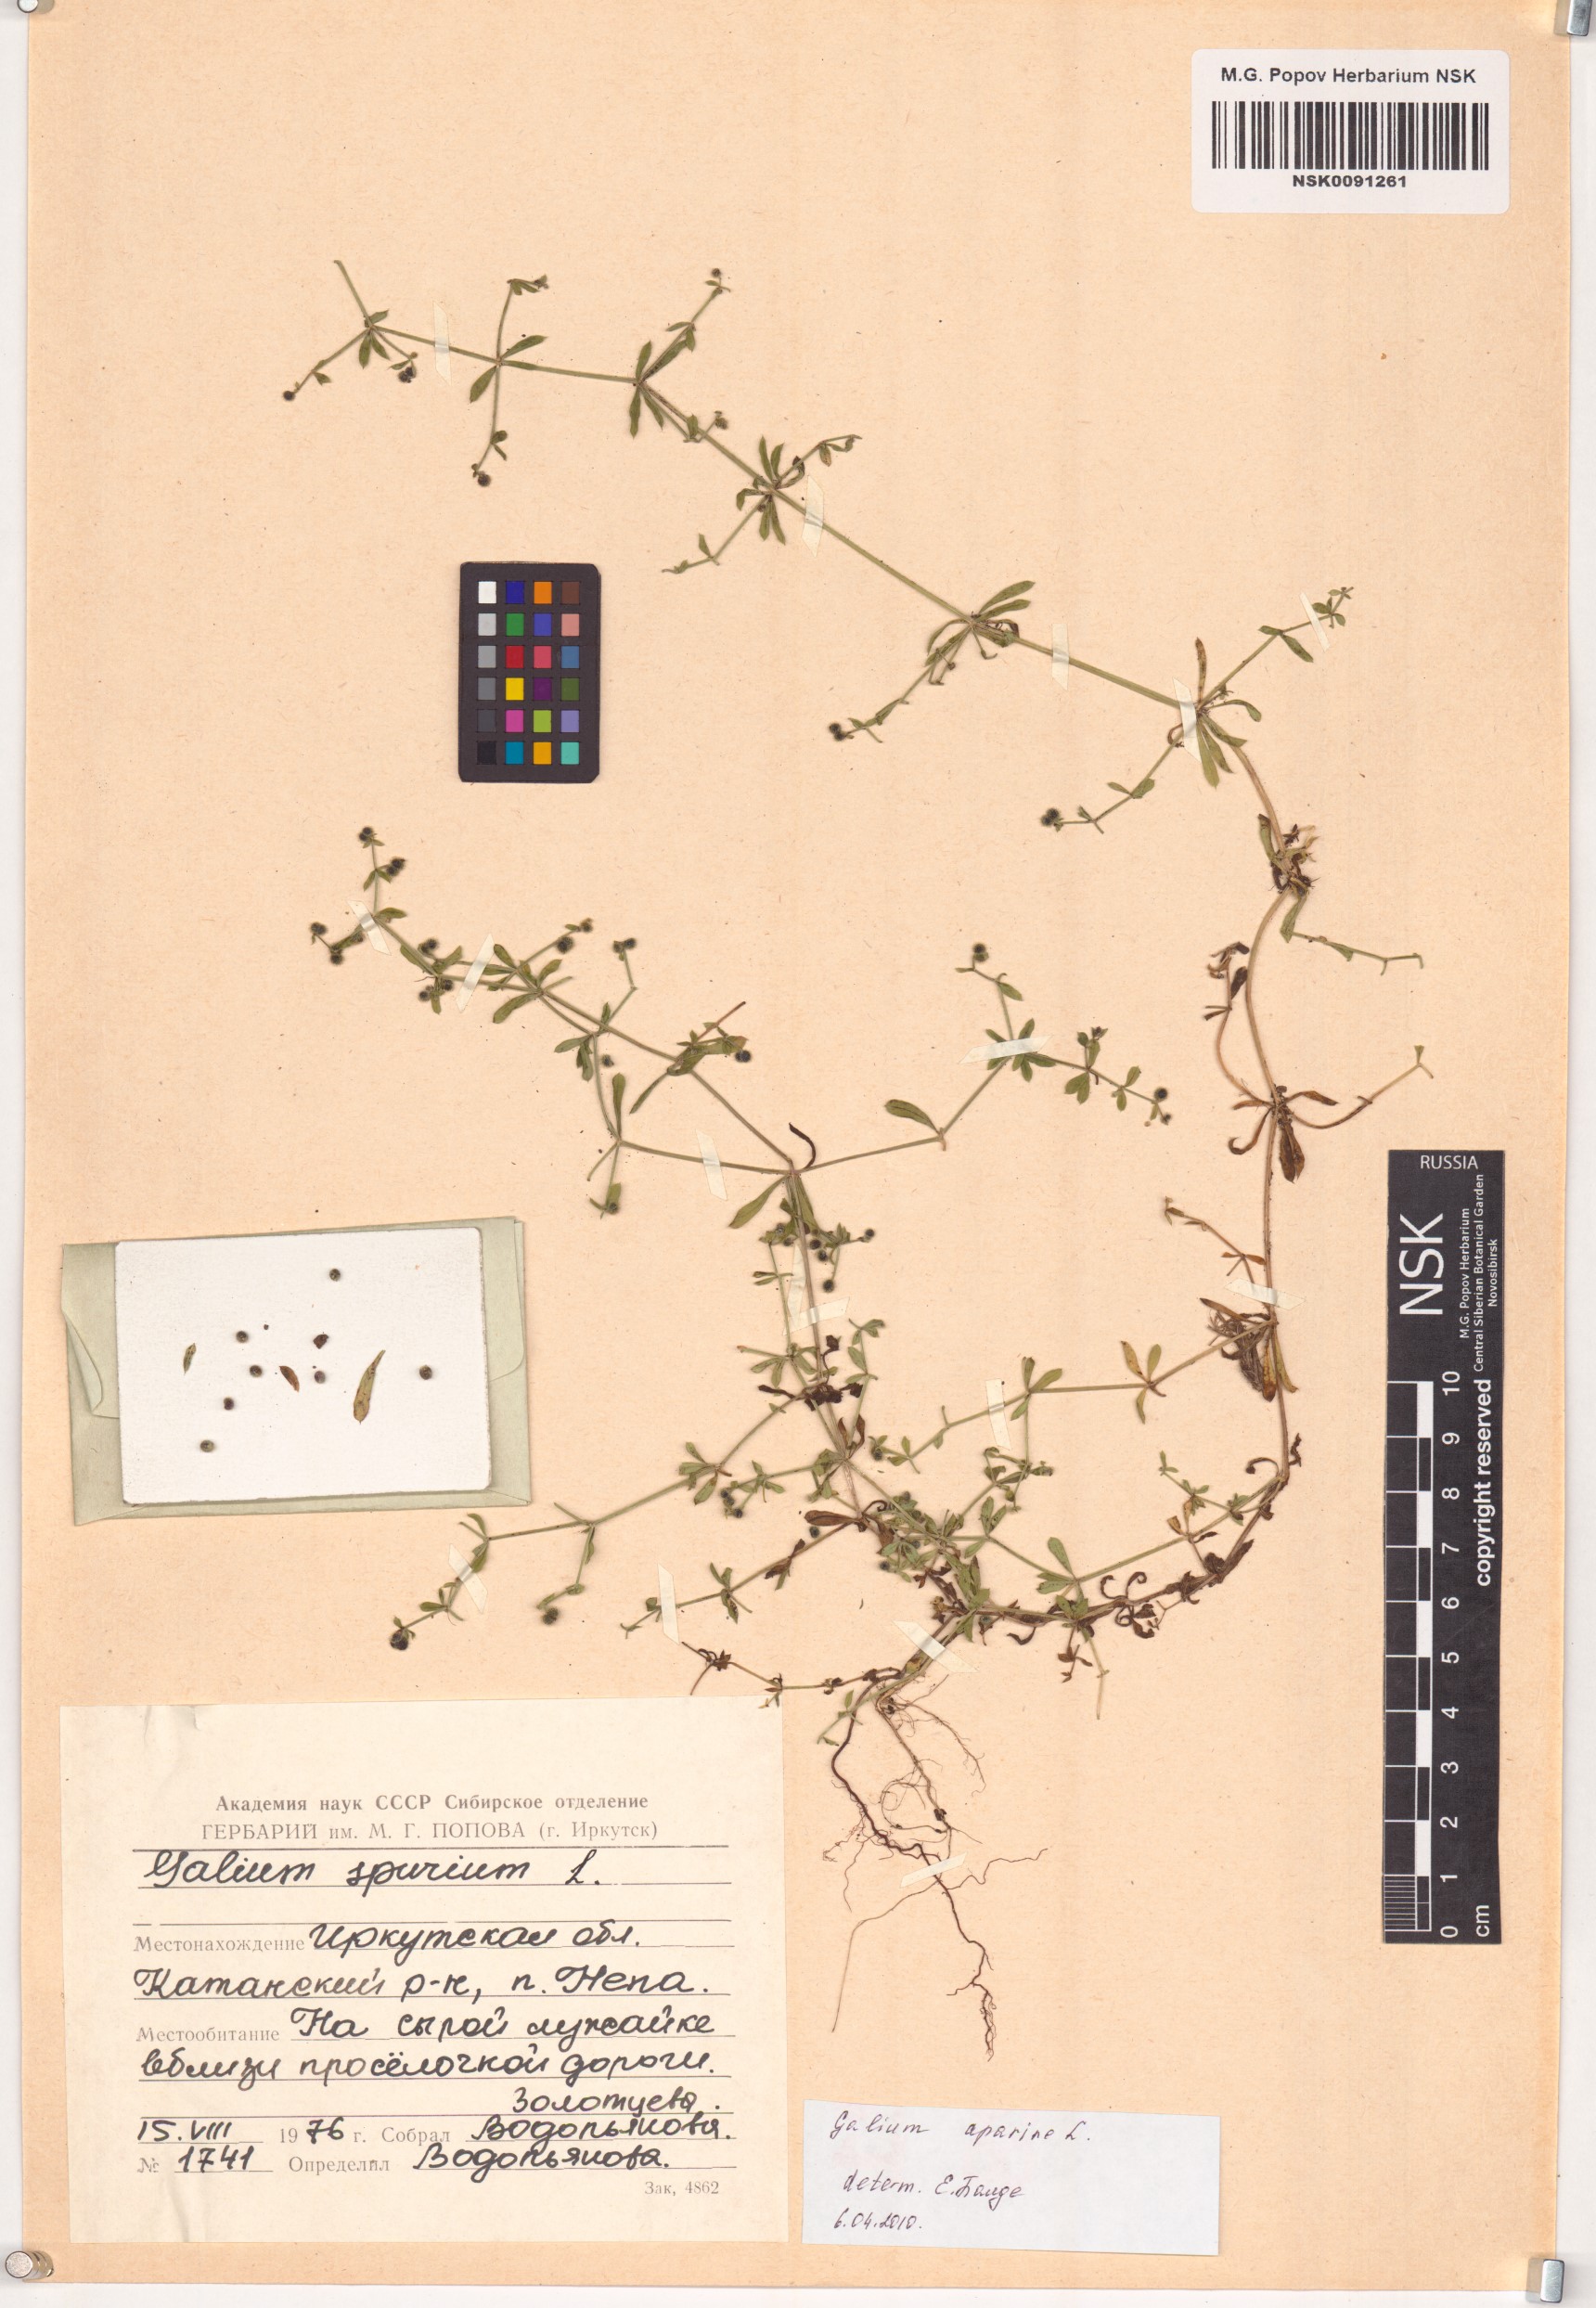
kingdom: Plantae
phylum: Tracheophyta
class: Magnoliopsida
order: Gentianales
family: Rubiaceae
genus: Galium
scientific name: Galium aparine
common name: Cleavers
